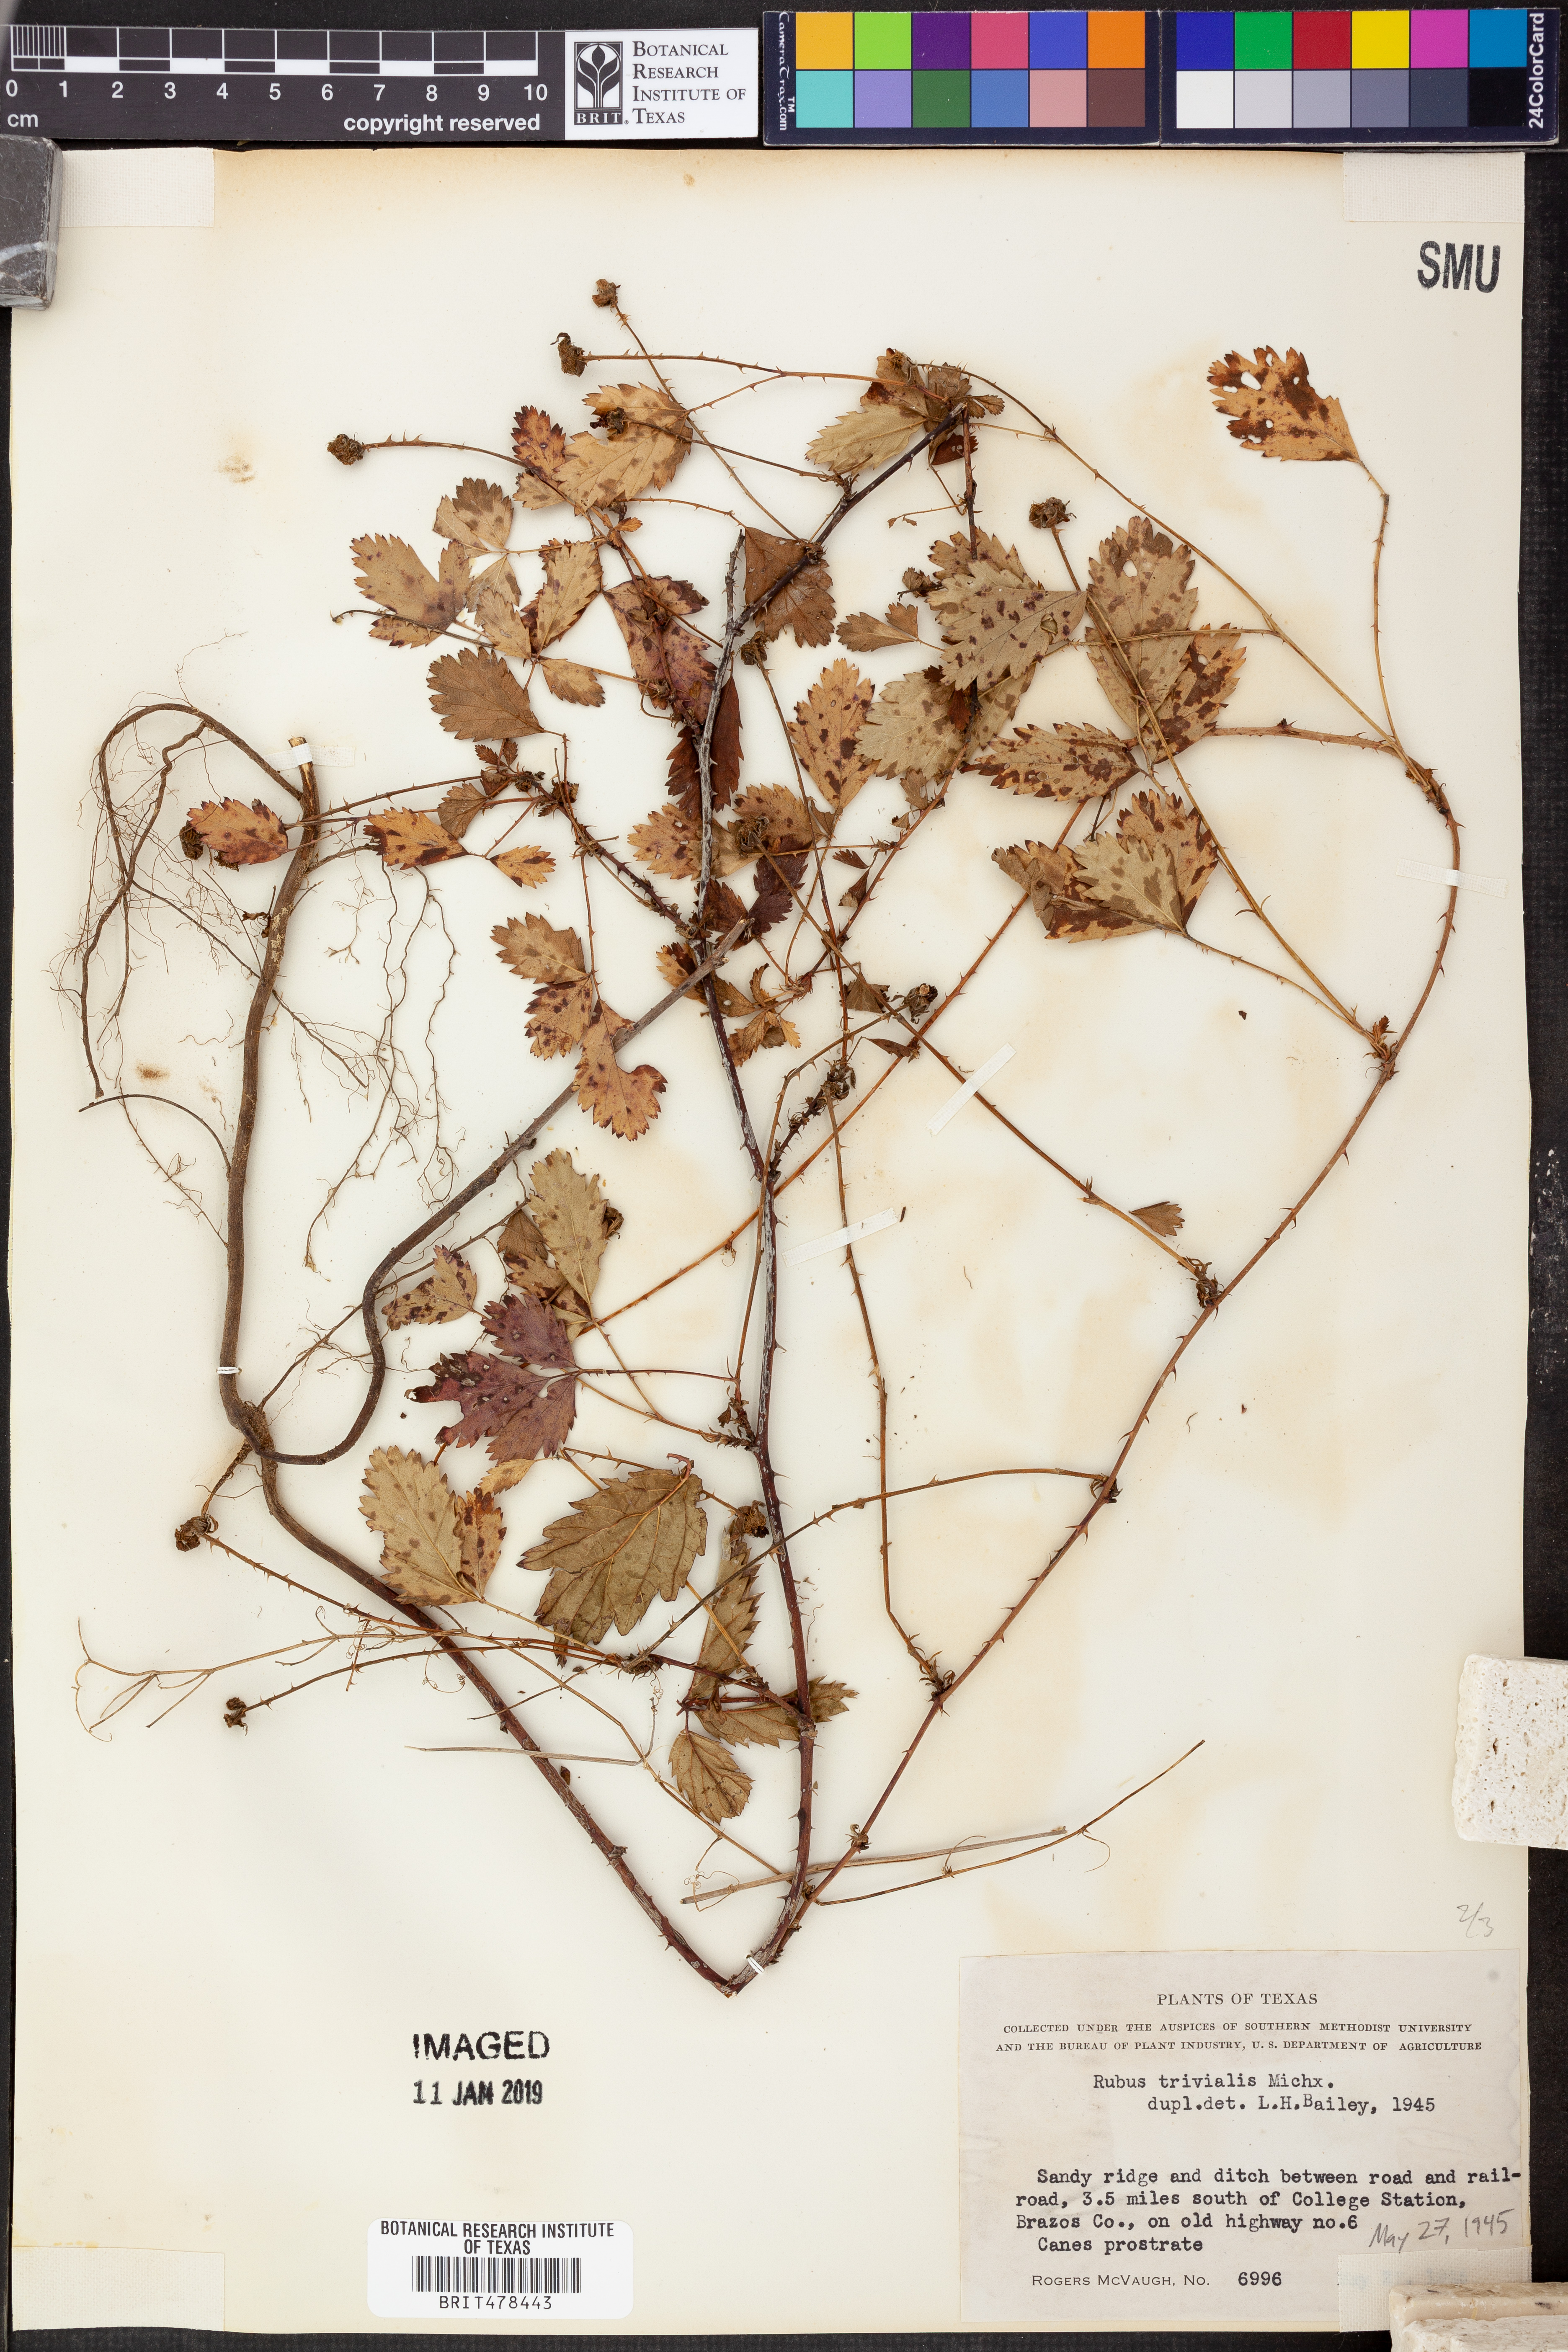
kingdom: Plantae
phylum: Tracheophyta
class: Magnoliopsida
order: Rosales
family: Rosaceae
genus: Rubus
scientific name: Rubus trivialis
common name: Southern dewberry
